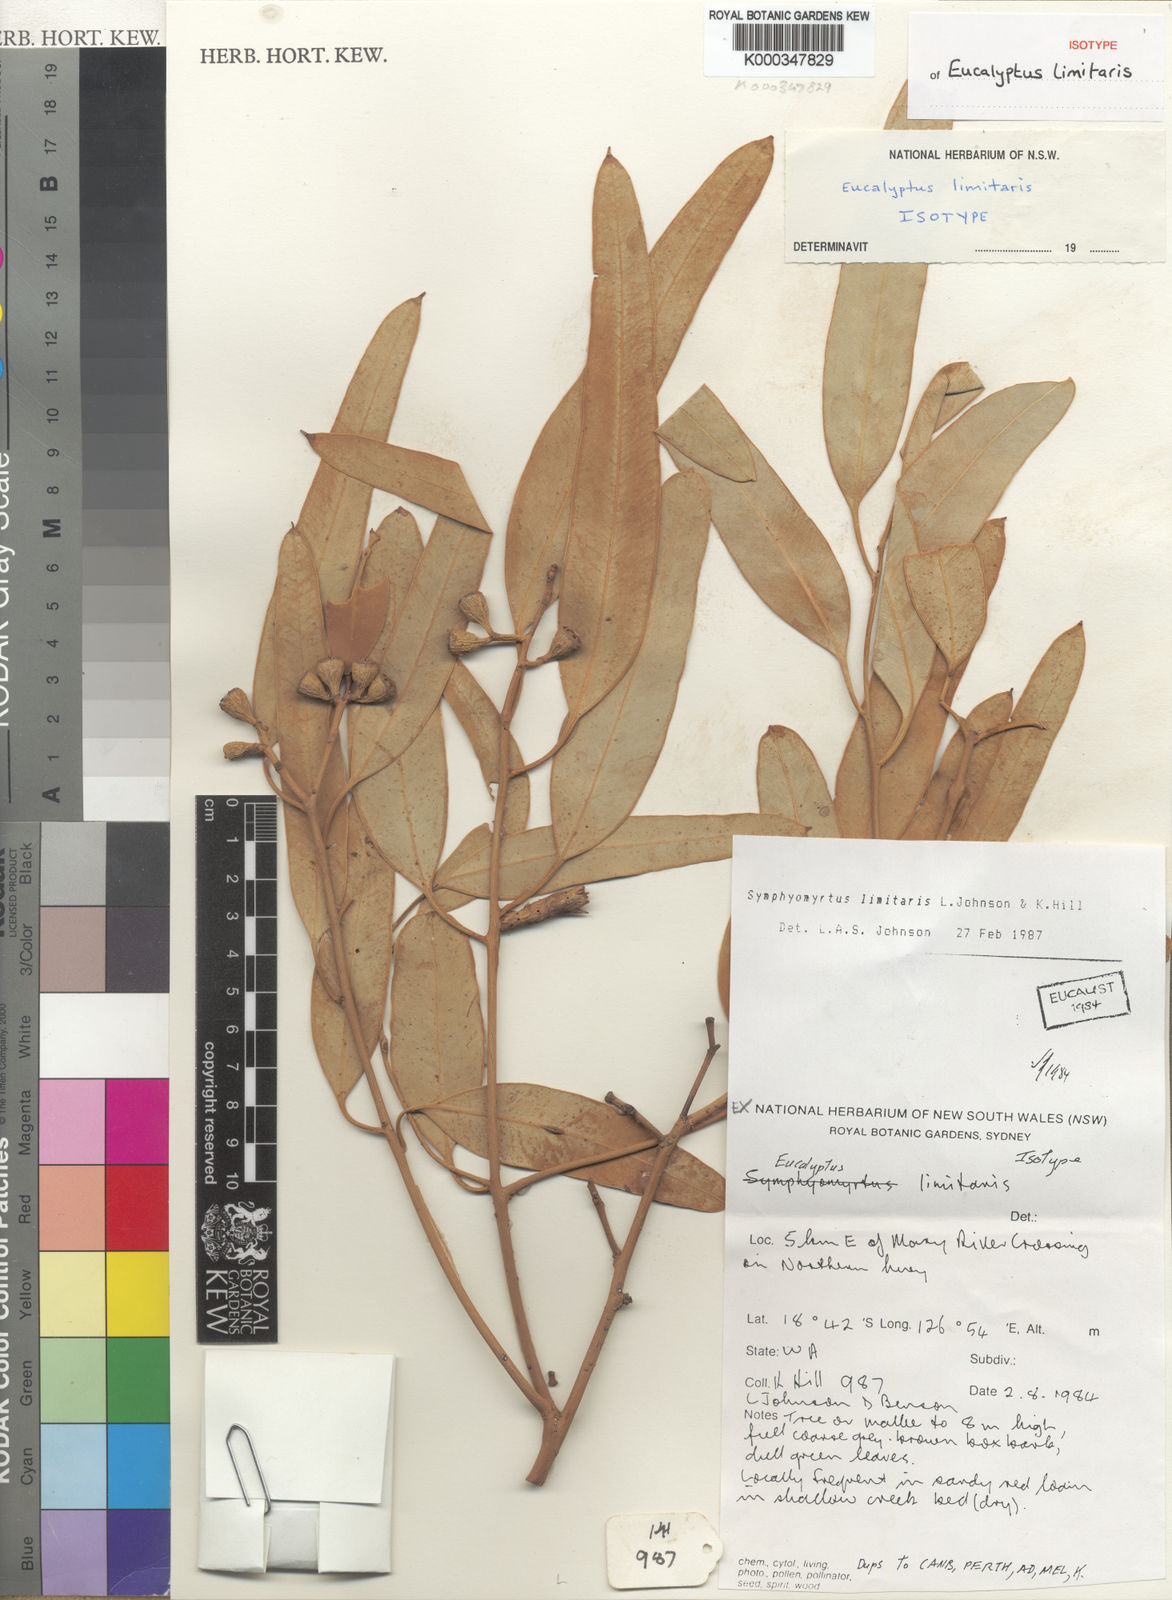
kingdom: Plantae
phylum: Tracheophyta
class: Magnoliopsida
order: Myrtales
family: Myrtaceae
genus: Eucalyptus
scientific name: Eucalyptus limitaris
